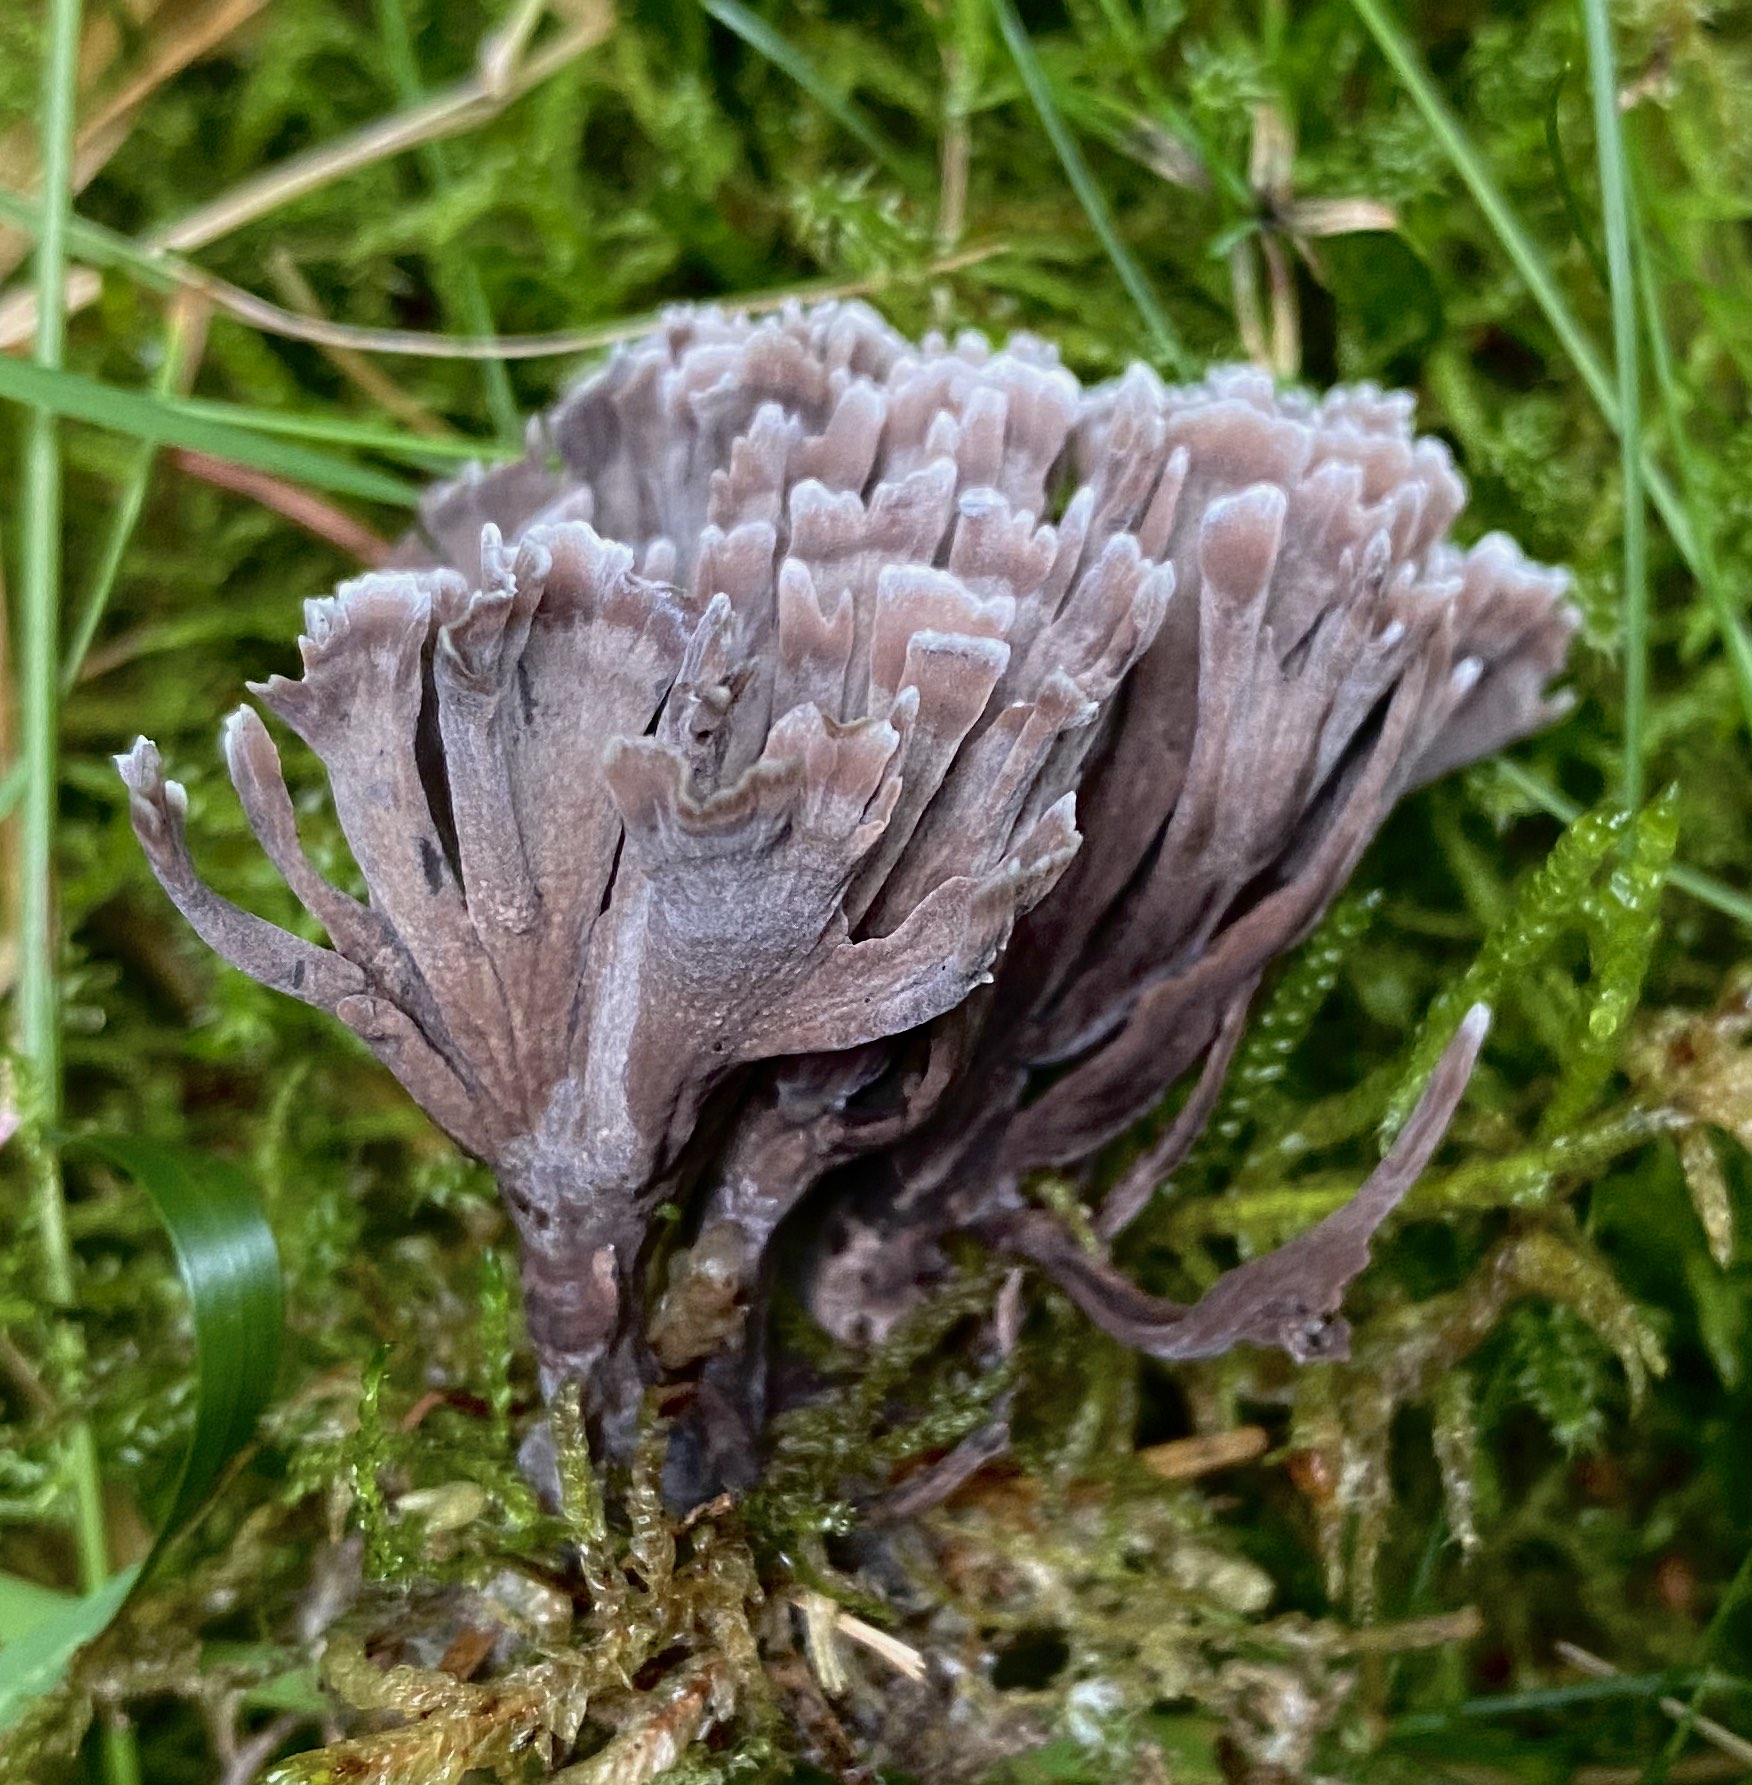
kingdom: Fungi
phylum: Basidiomycota
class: Agaricomycetes
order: Thelephorales
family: Thelephoraceae
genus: Thelephora
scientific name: Thelephora palmata
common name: grenet frynsesvamp
